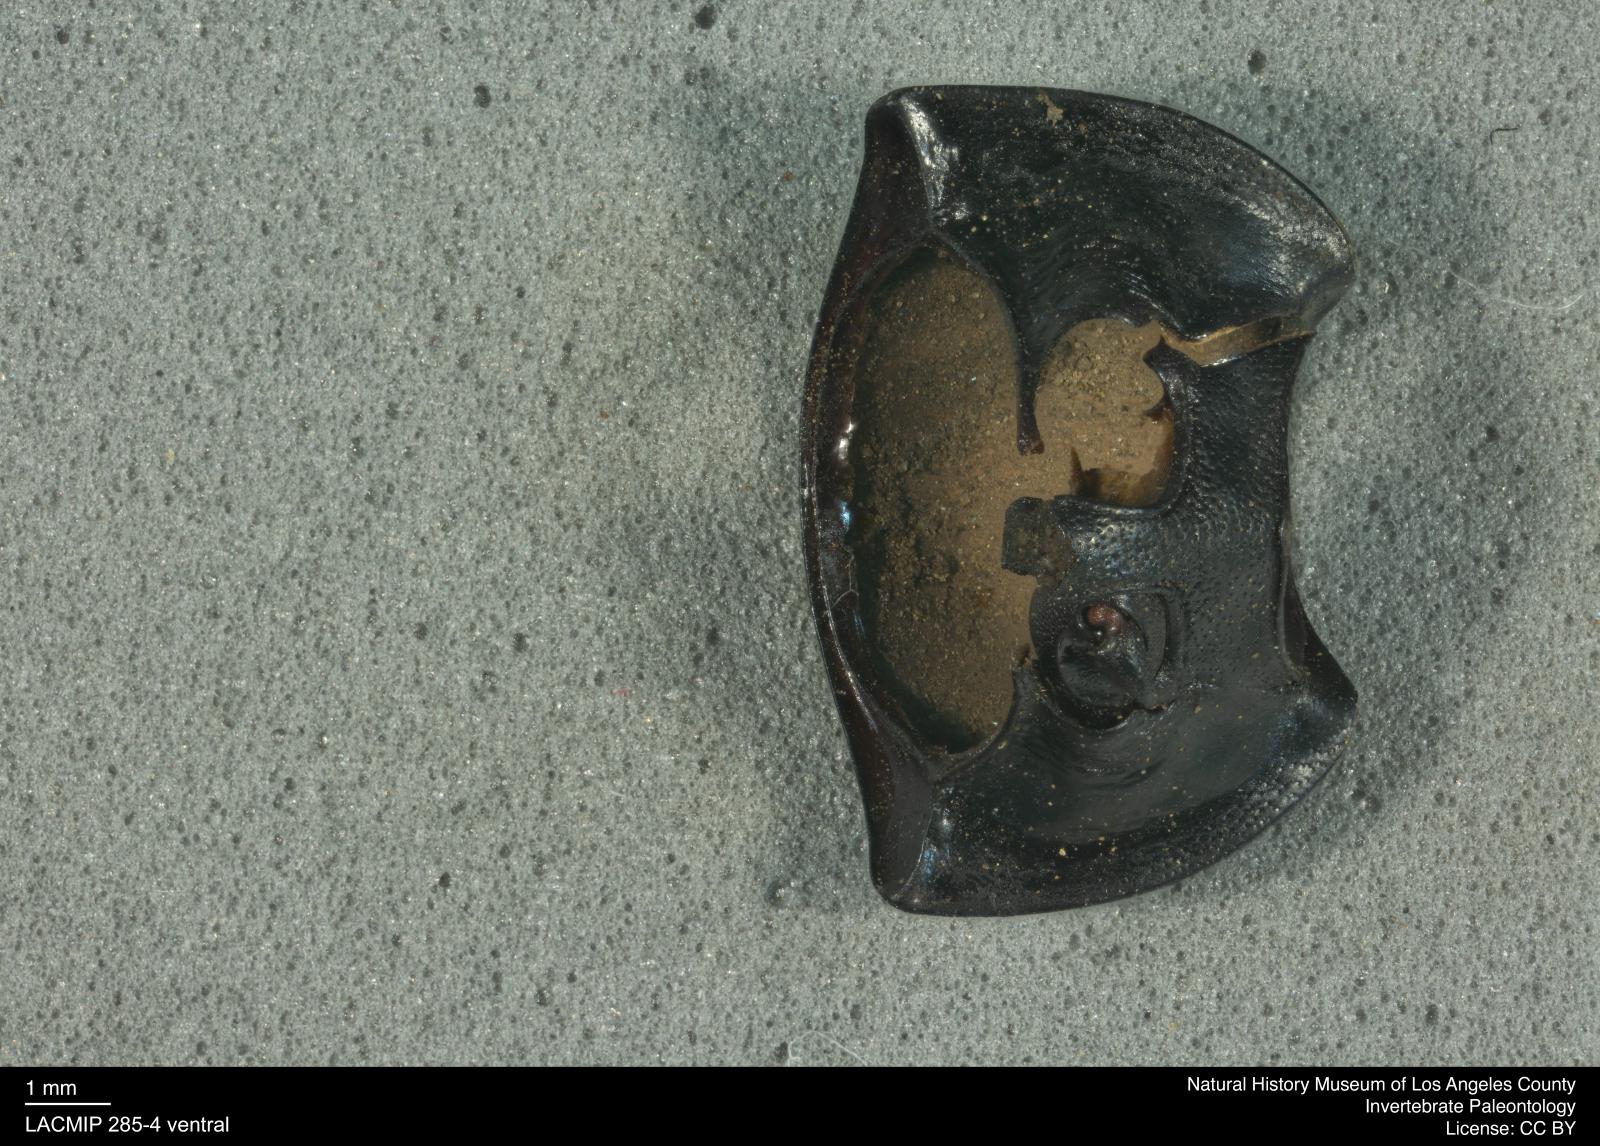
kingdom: Animalia
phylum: Arthropoda
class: Insecta
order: Coleoptera
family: Tenebrionidae
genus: Coniontis
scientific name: Coniontis abdominalis
